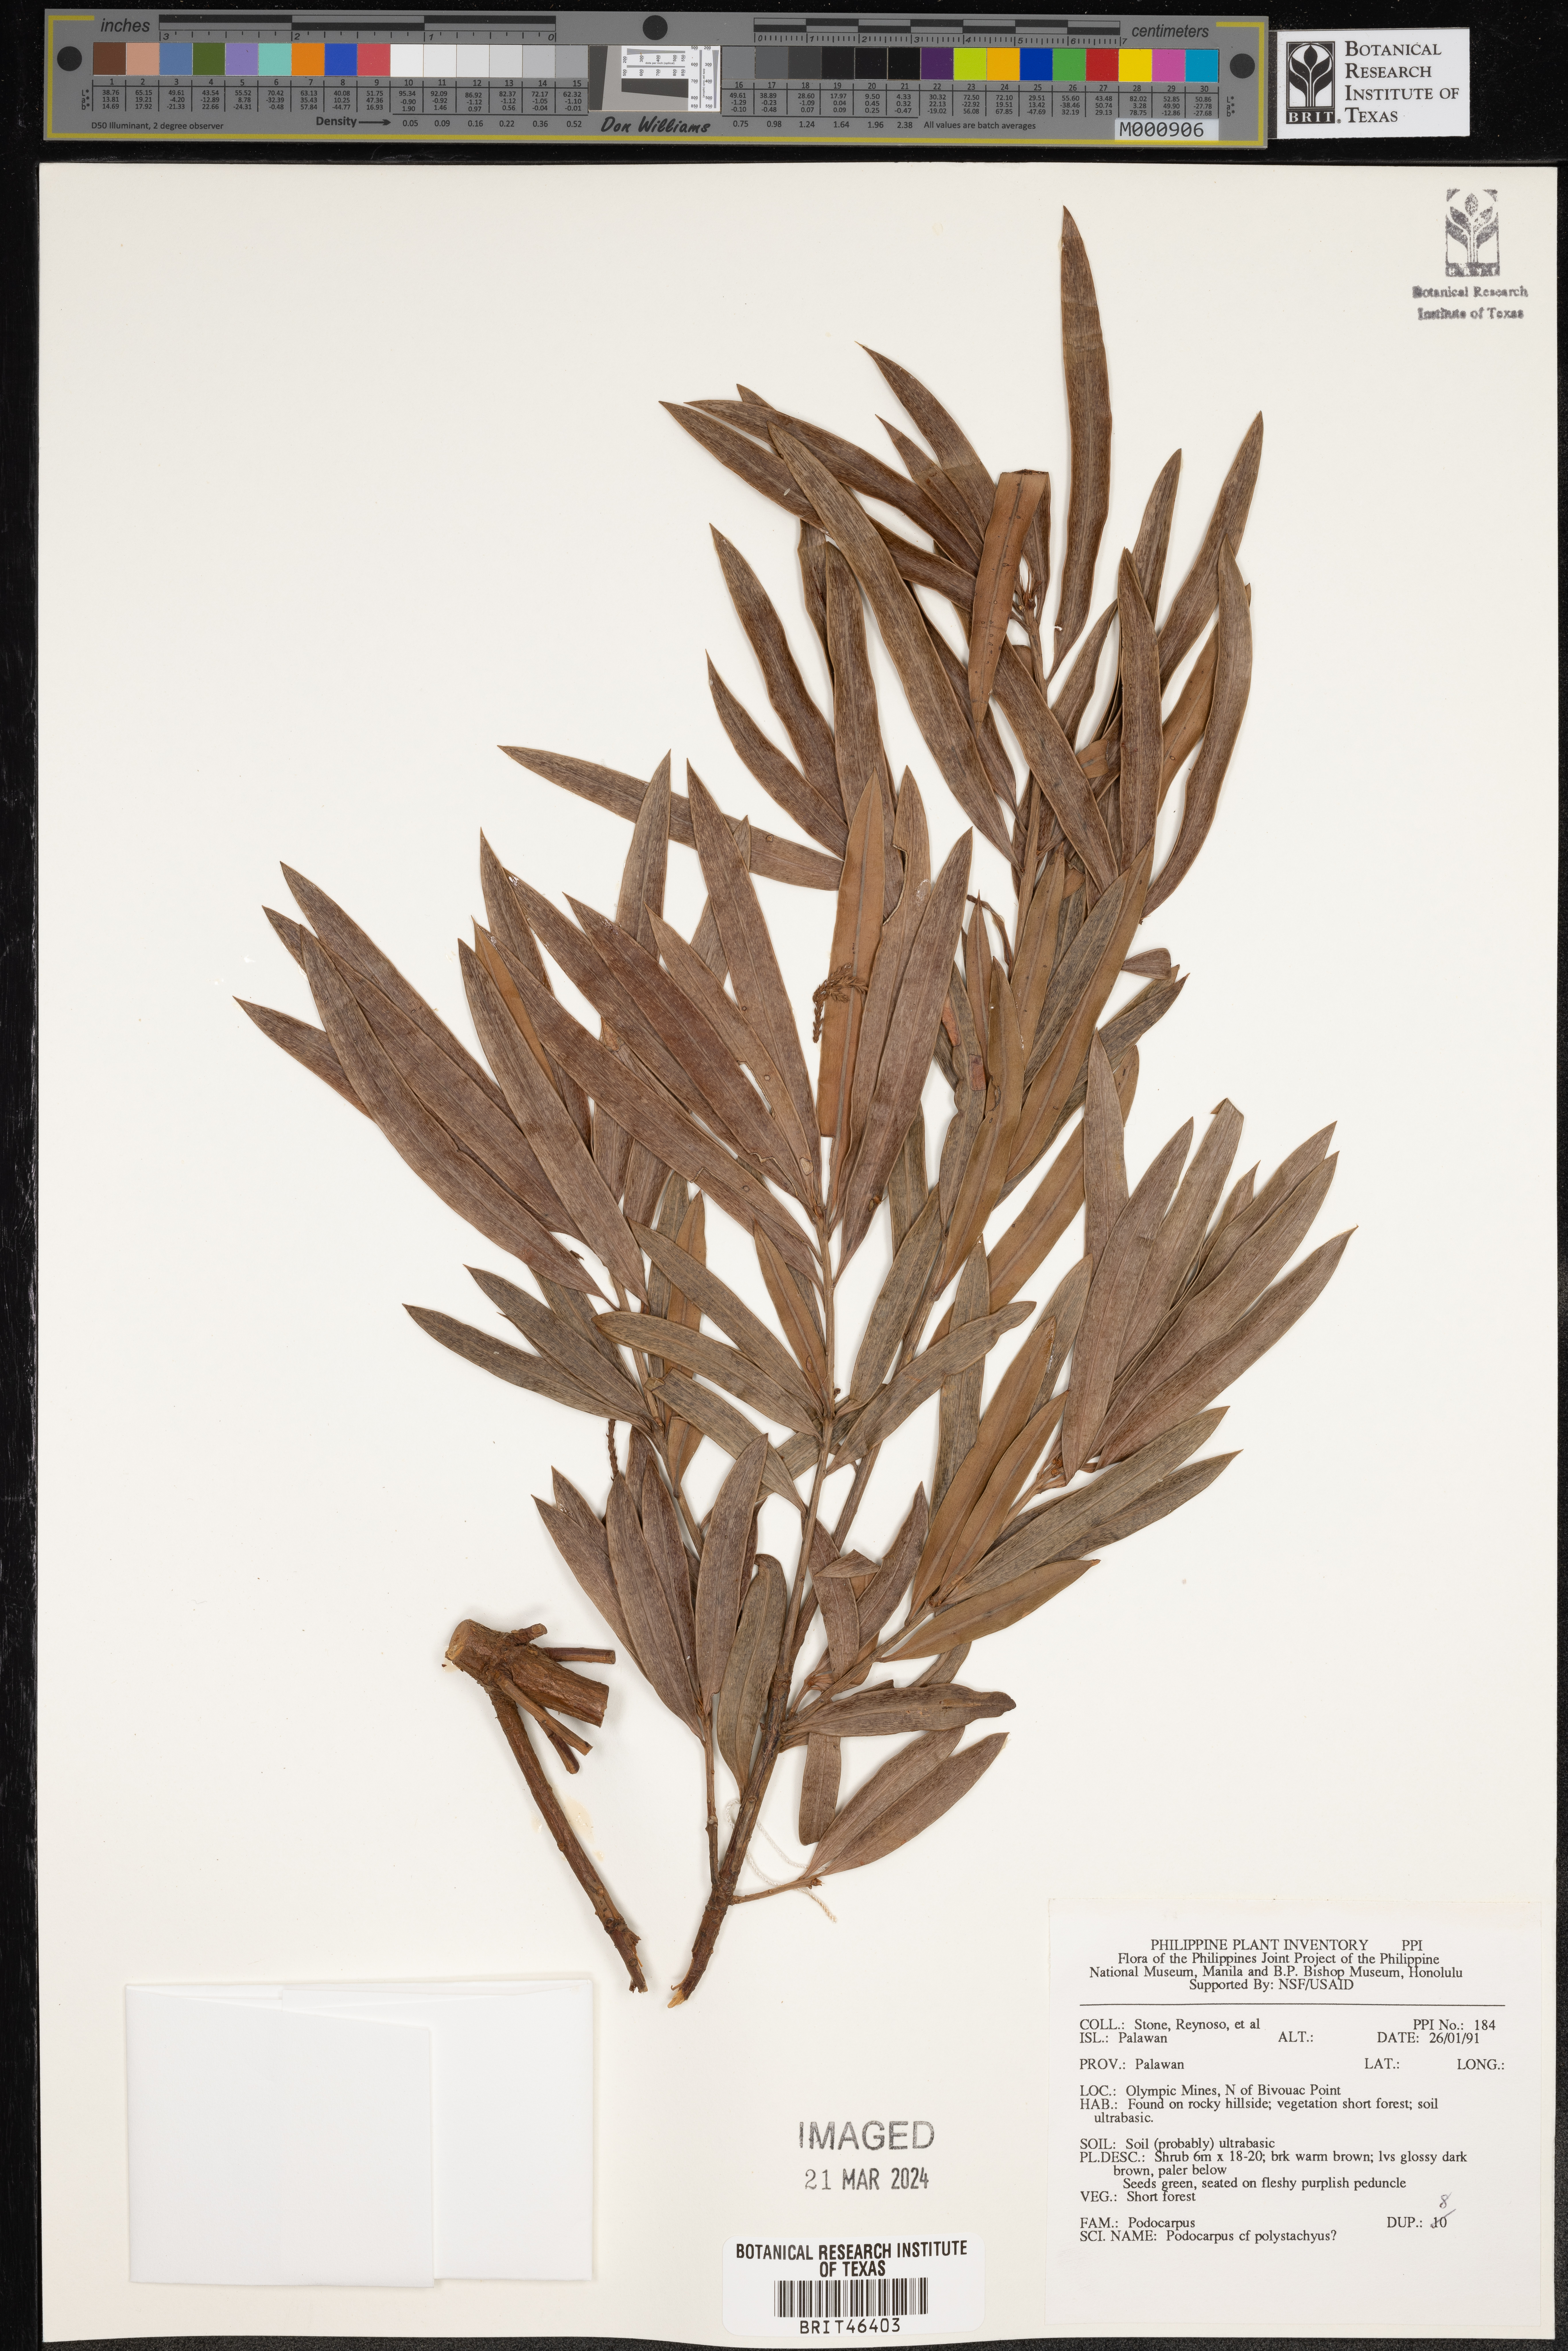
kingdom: Plantae
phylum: Tracheophyta
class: Pinopsida
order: Pinales
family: Podocarpaceae
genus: Podocarpus
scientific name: Podocarpus polystachyus
